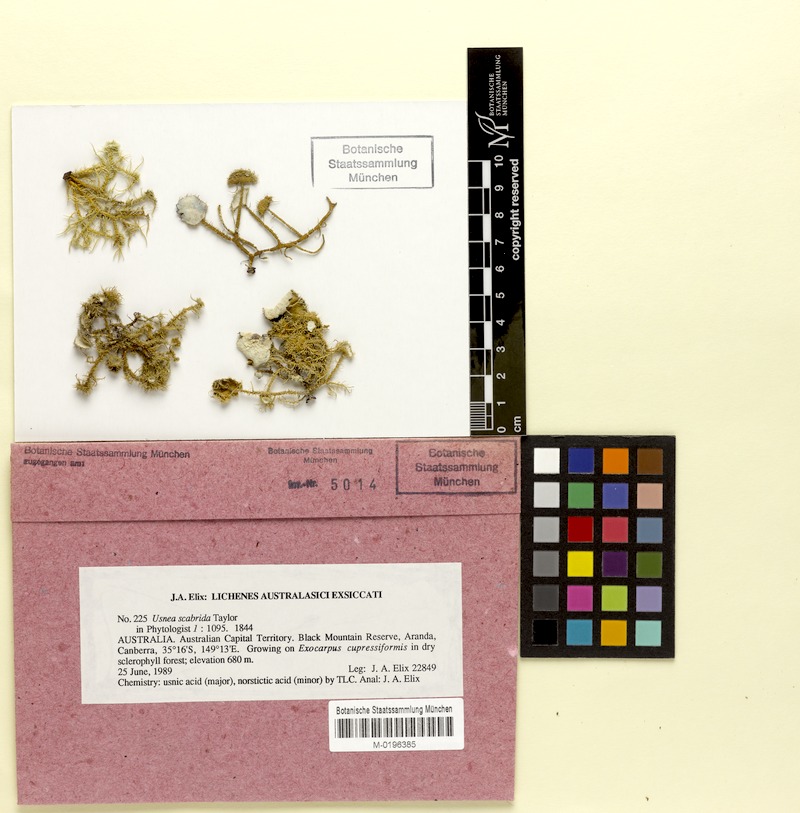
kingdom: Fungi
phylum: Ascomycota
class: Lecanoromycetes
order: Lecanorales
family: Parmeliaceae
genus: Usnea
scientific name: Usnea scabrida
